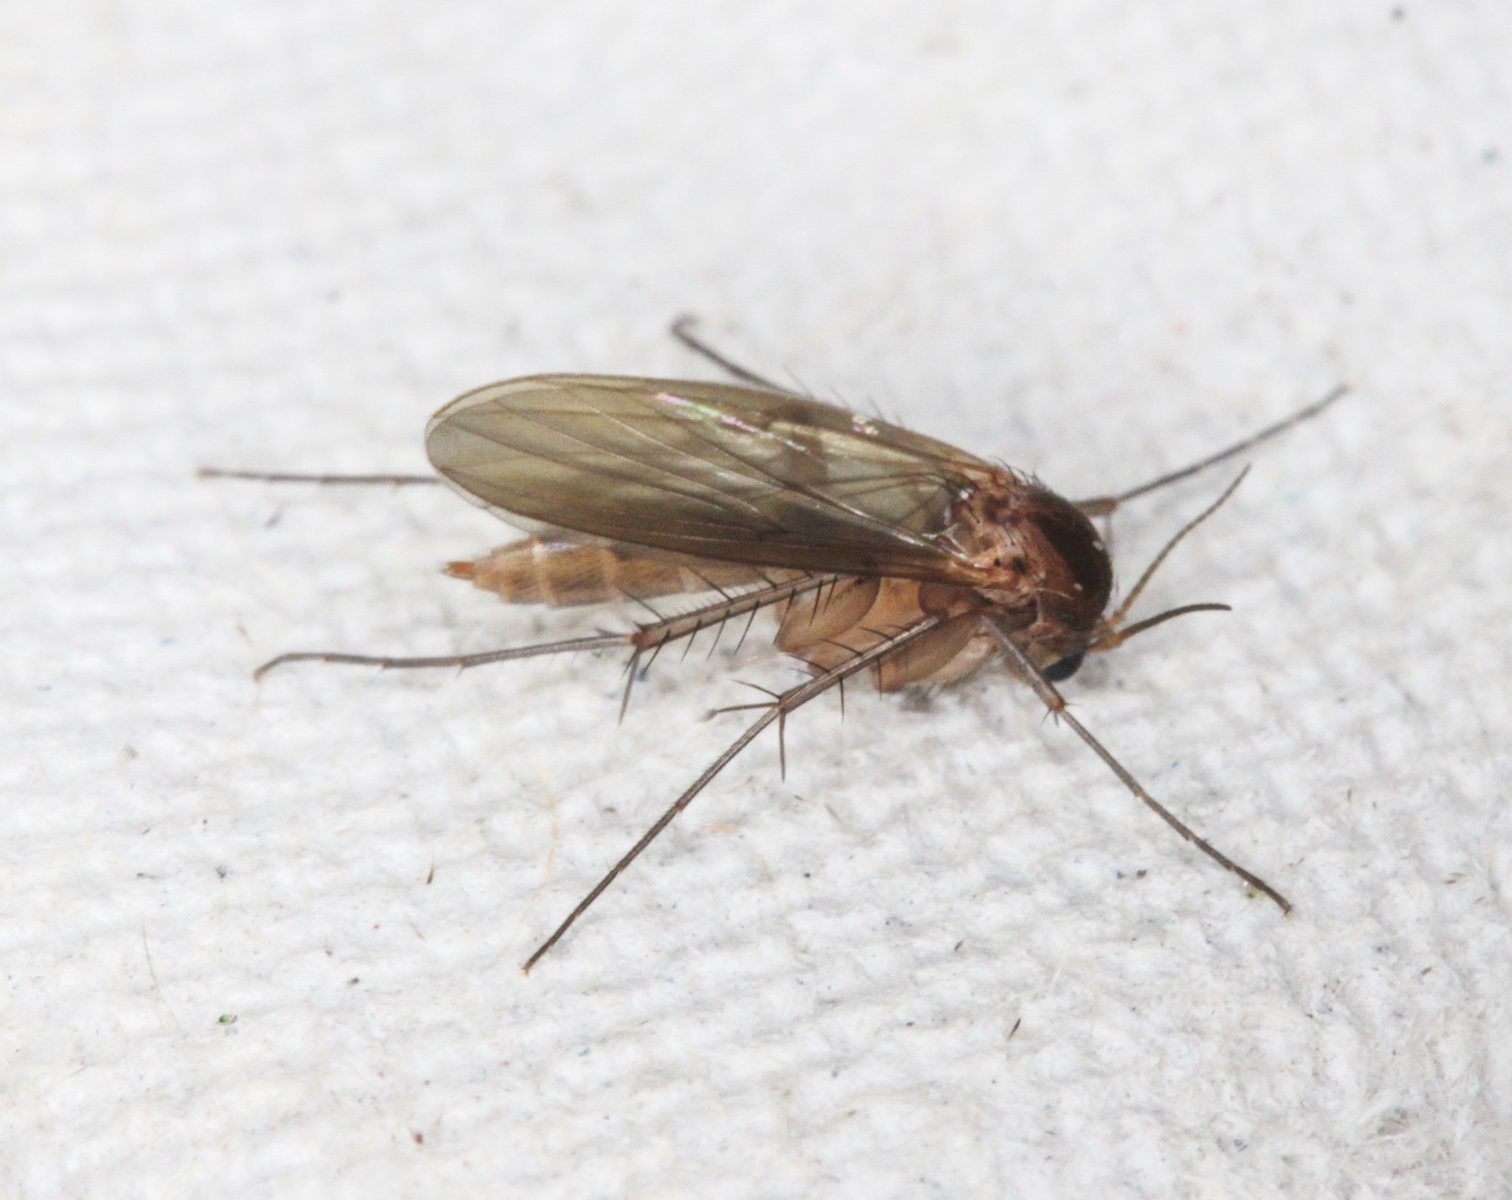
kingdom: Animalia
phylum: Arthropoda
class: Insecta
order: Diptera
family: Mycetophilidae
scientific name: Mycetophilidae
